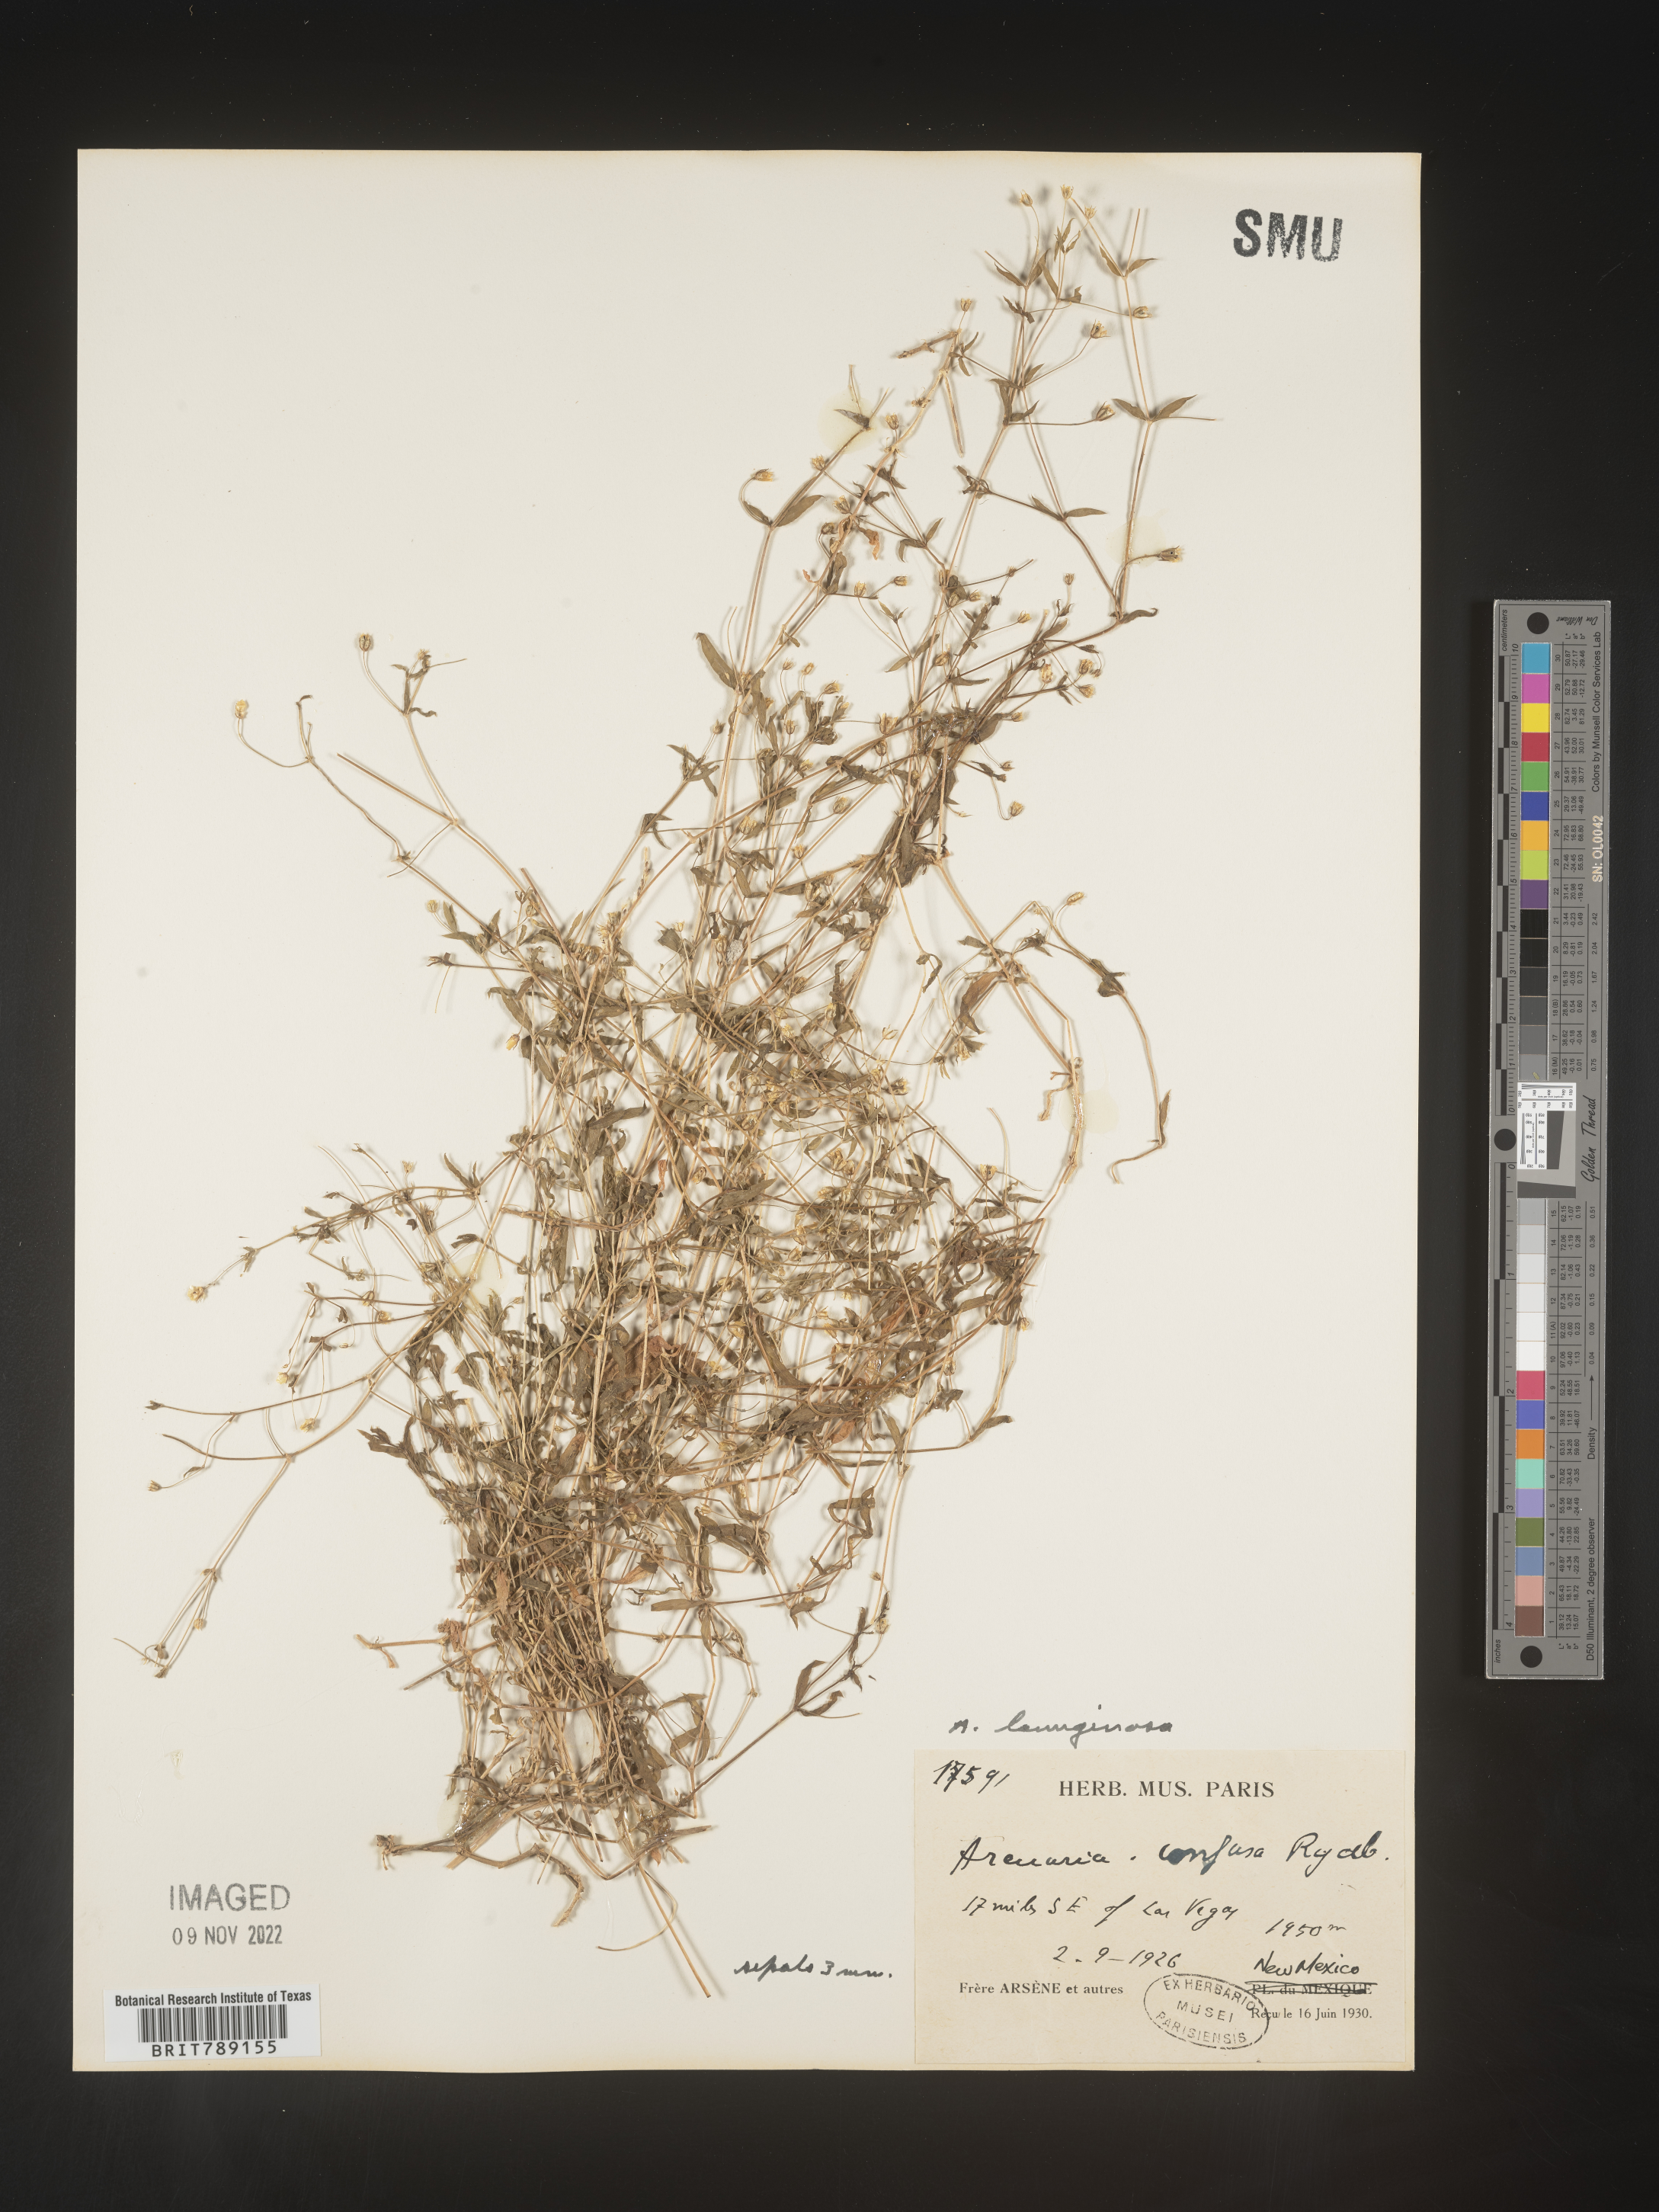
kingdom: Plantae
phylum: Tracheophyta
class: Magnoliopsida
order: Caryophyllales
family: Caryophyllaceae
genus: Arenaria
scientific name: Arenaria
